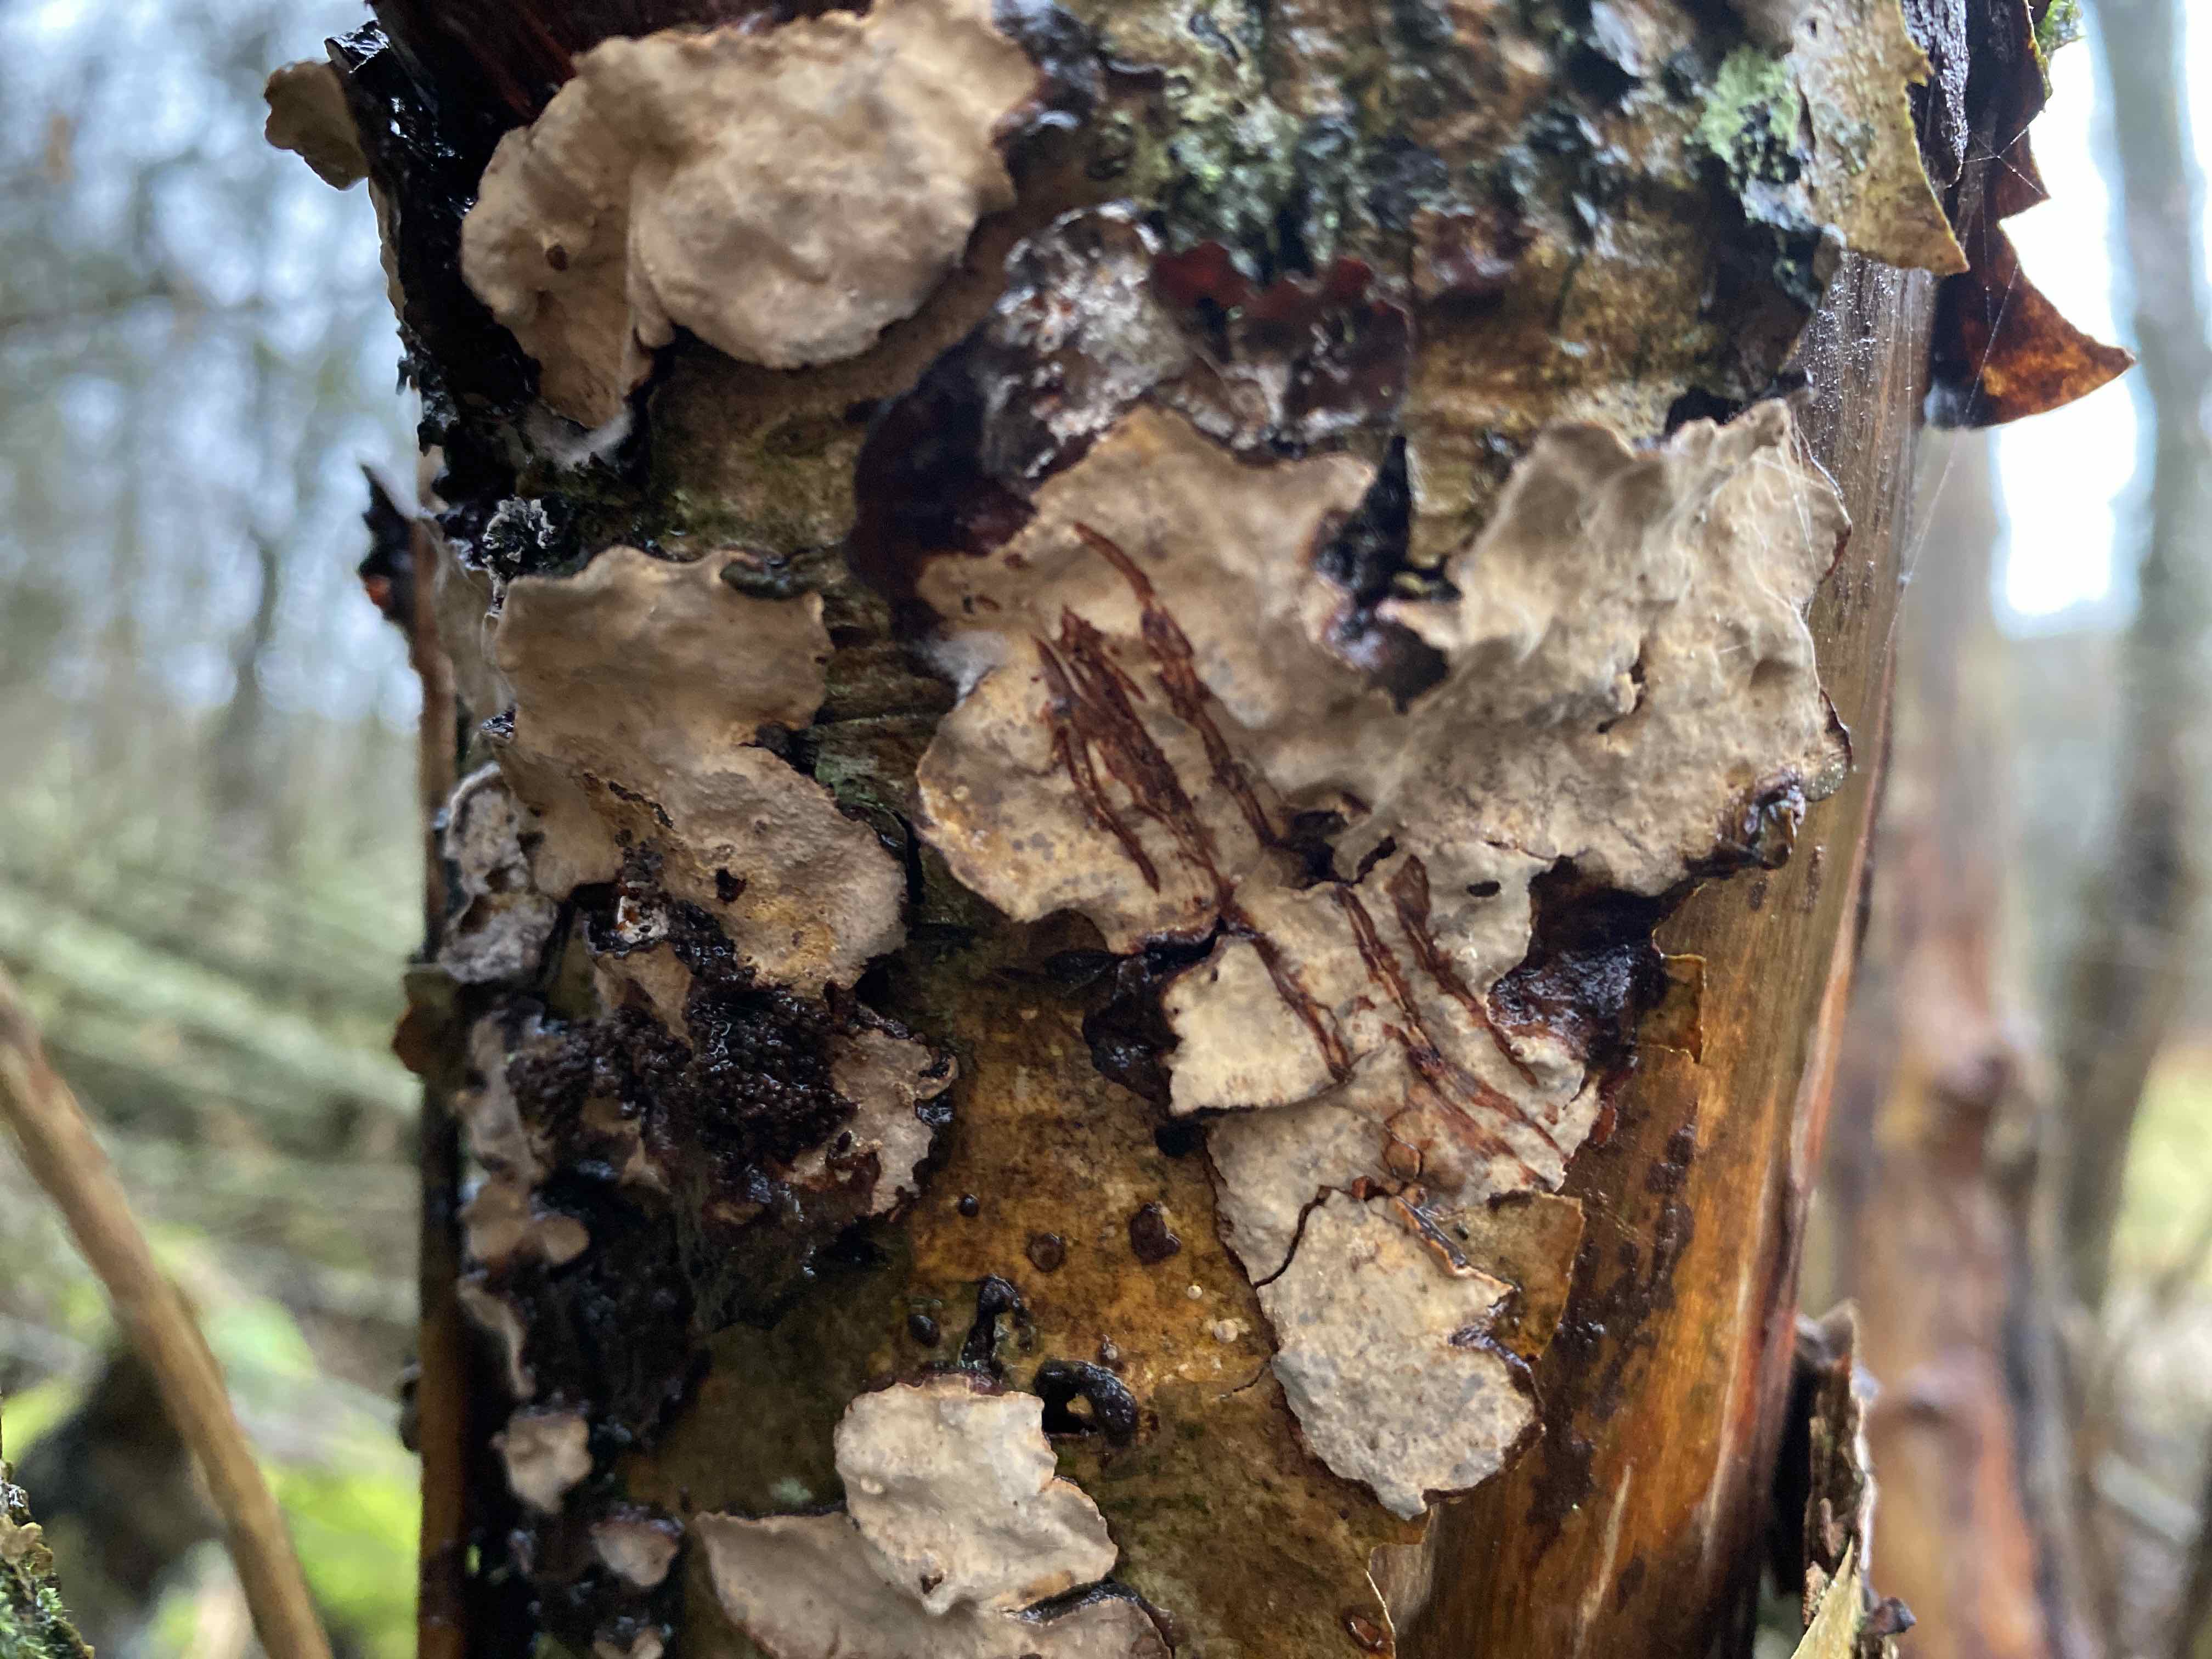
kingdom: Fungi
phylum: Basidiomycota
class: Agaricomycetes
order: Russulales
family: Stereaceae
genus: Stereum
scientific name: Stereum rugosum
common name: rynket lædersvamp
